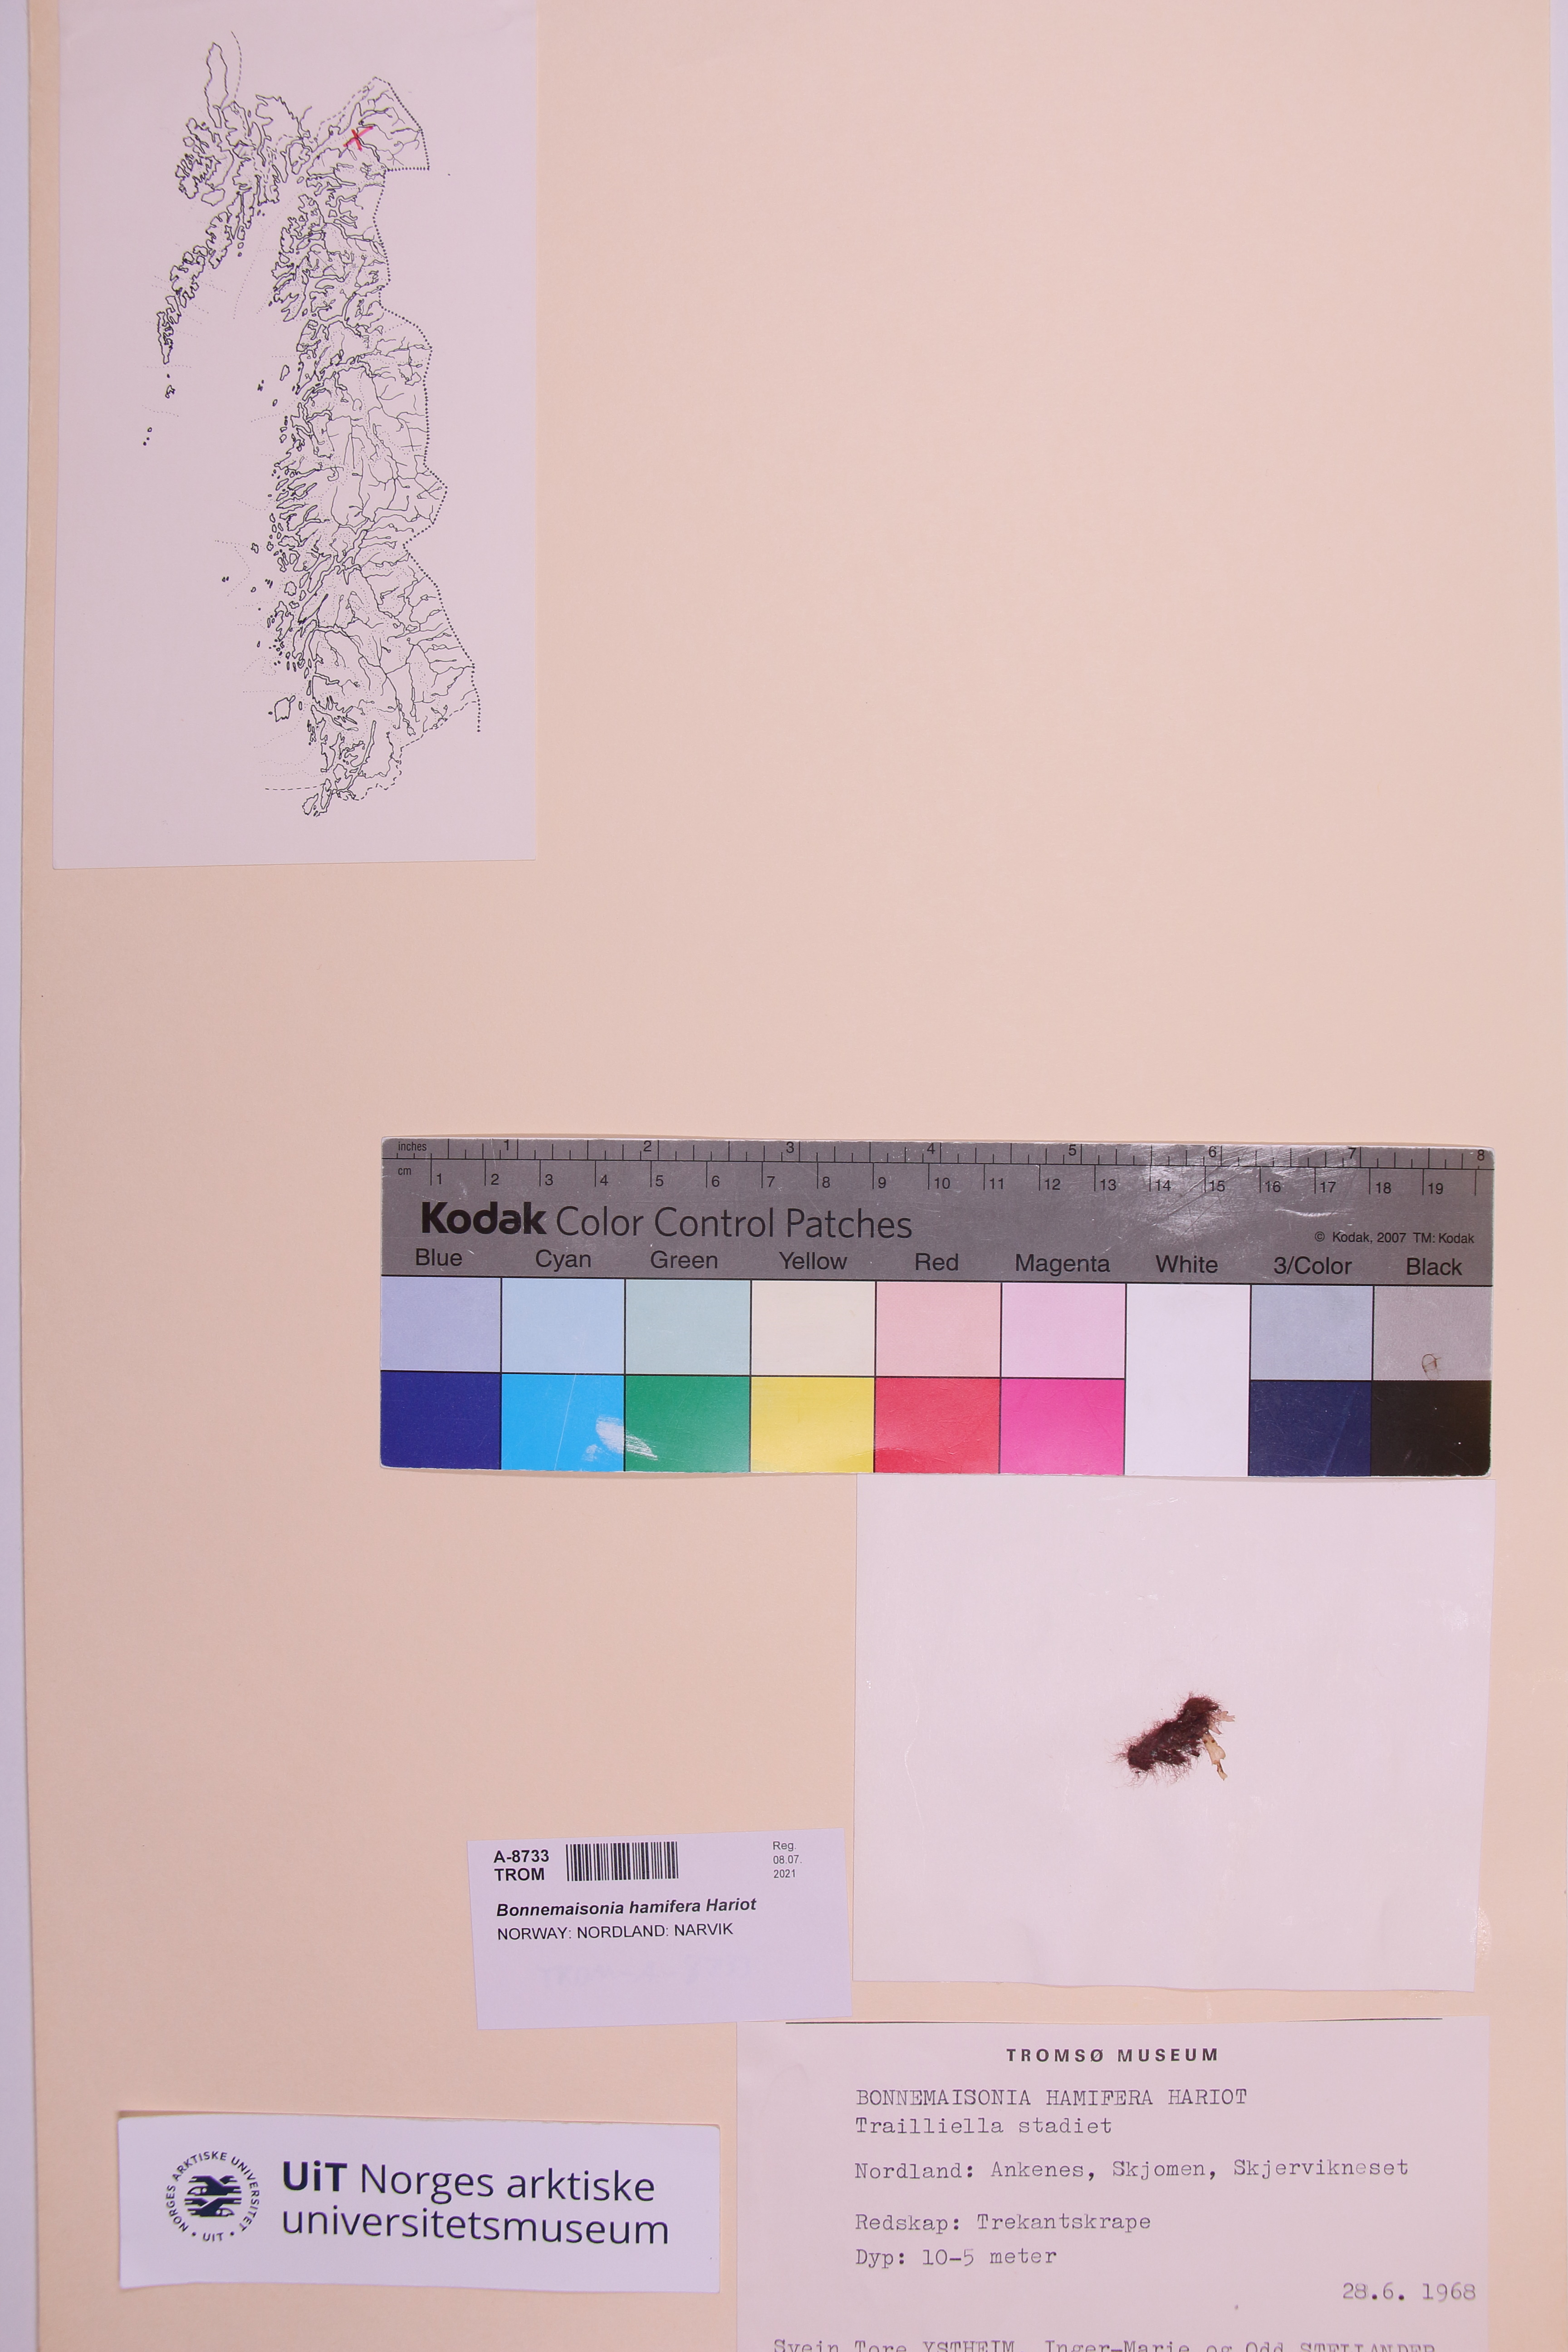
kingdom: Plantae
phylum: Rhodophyta
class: Florideophyceae
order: Bonnemaisoniales
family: Bonnemaisoniaceae
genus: Bonnemaisonia
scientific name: Bonnemaisonia hamifera
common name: Bonnemaison's hook weed
